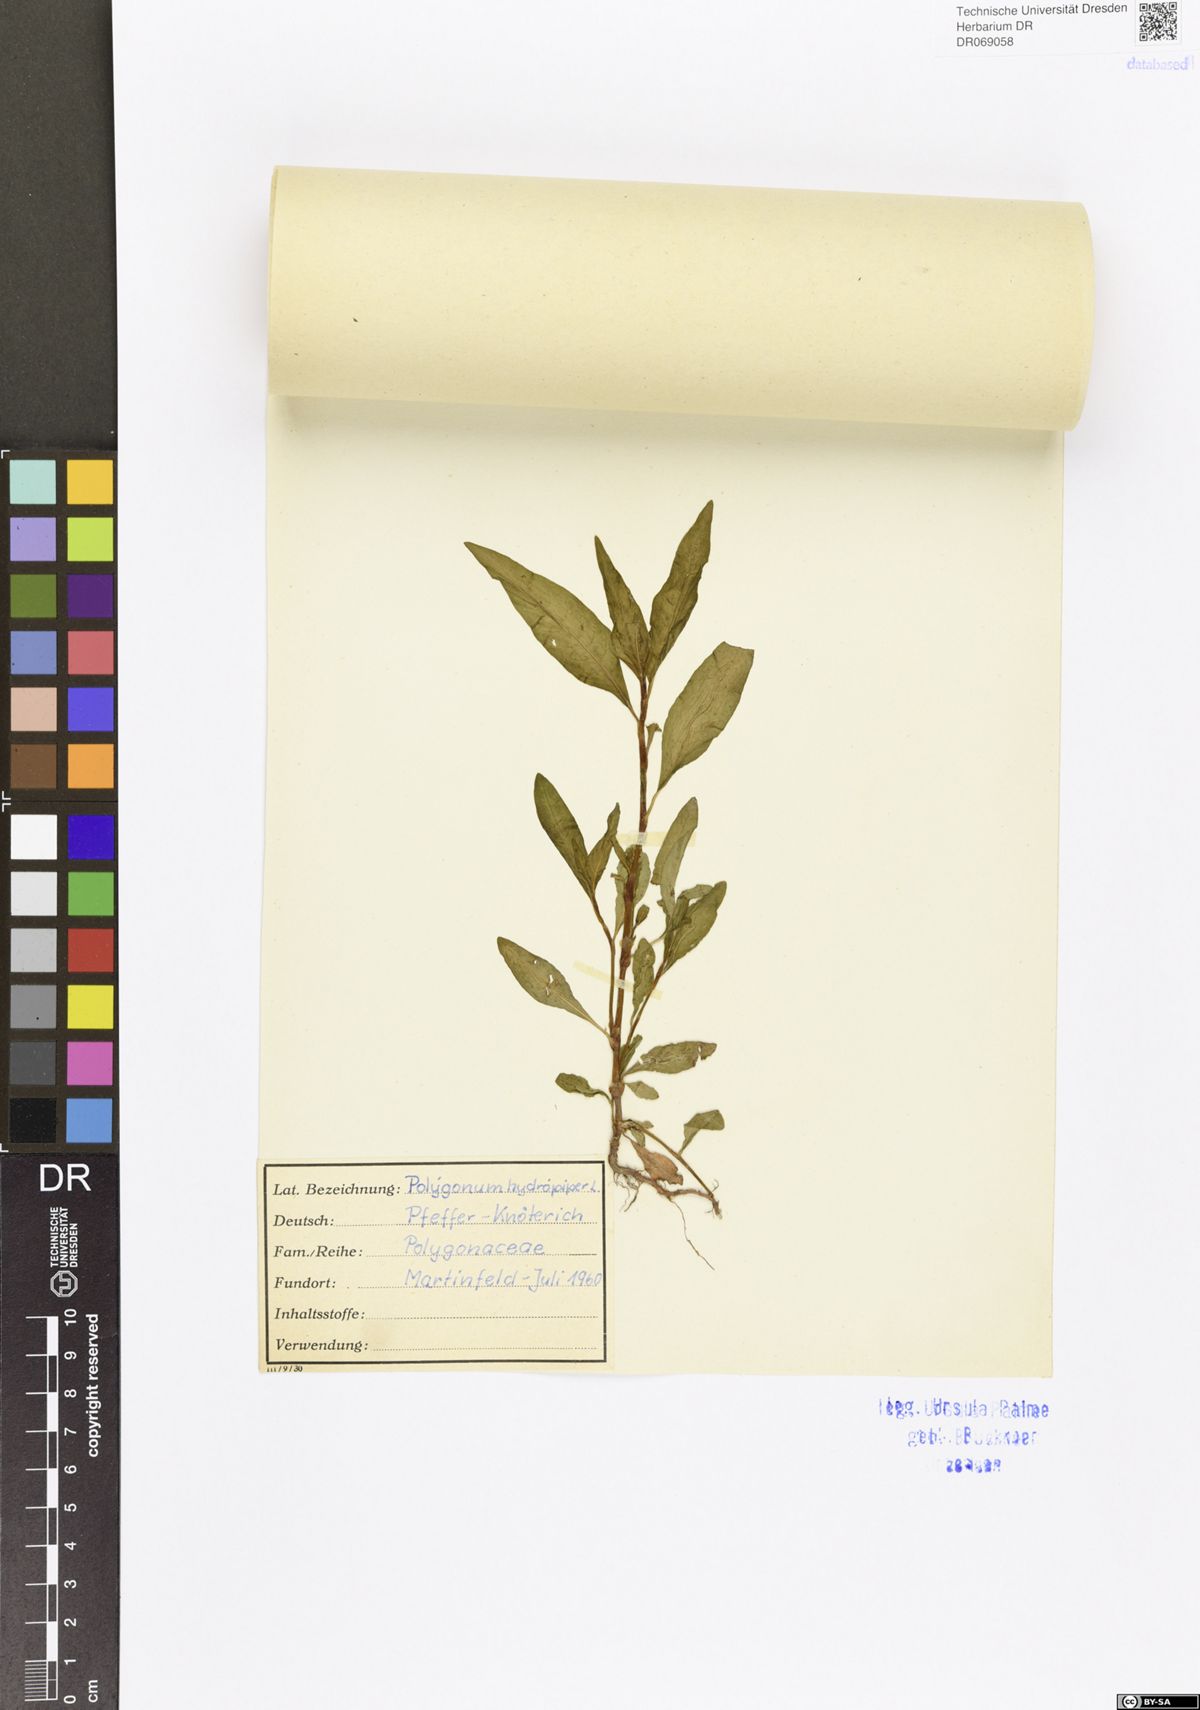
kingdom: Plantae
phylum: Tracheophyta
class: Magnoliopsida
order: Caryophyllales
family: Polygonaceae
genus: Persicaria
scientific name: Persicaria hydropiper
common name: Water-pepper
